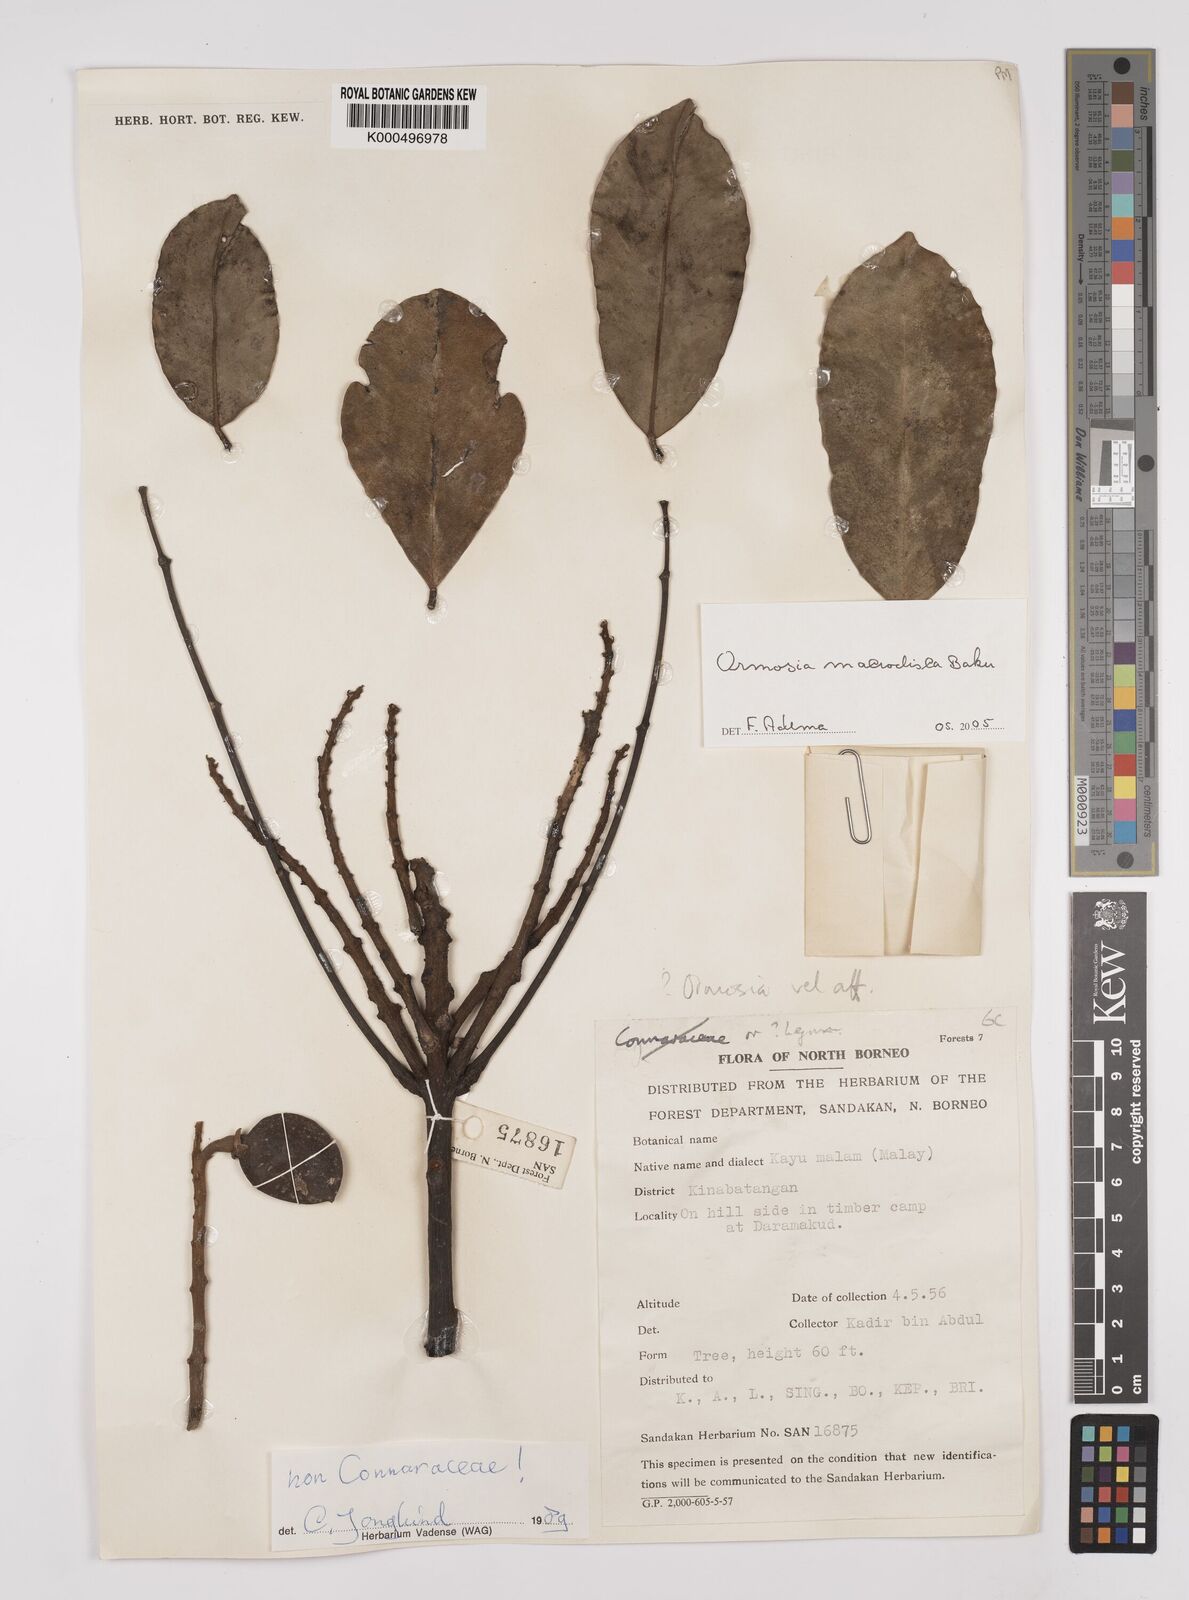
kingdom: Plantae
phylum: Tracheophyta
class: Magnoliopsida
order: Fabales
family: Fabaceae
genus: Ormosia
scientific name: Ormosia macrodisca
